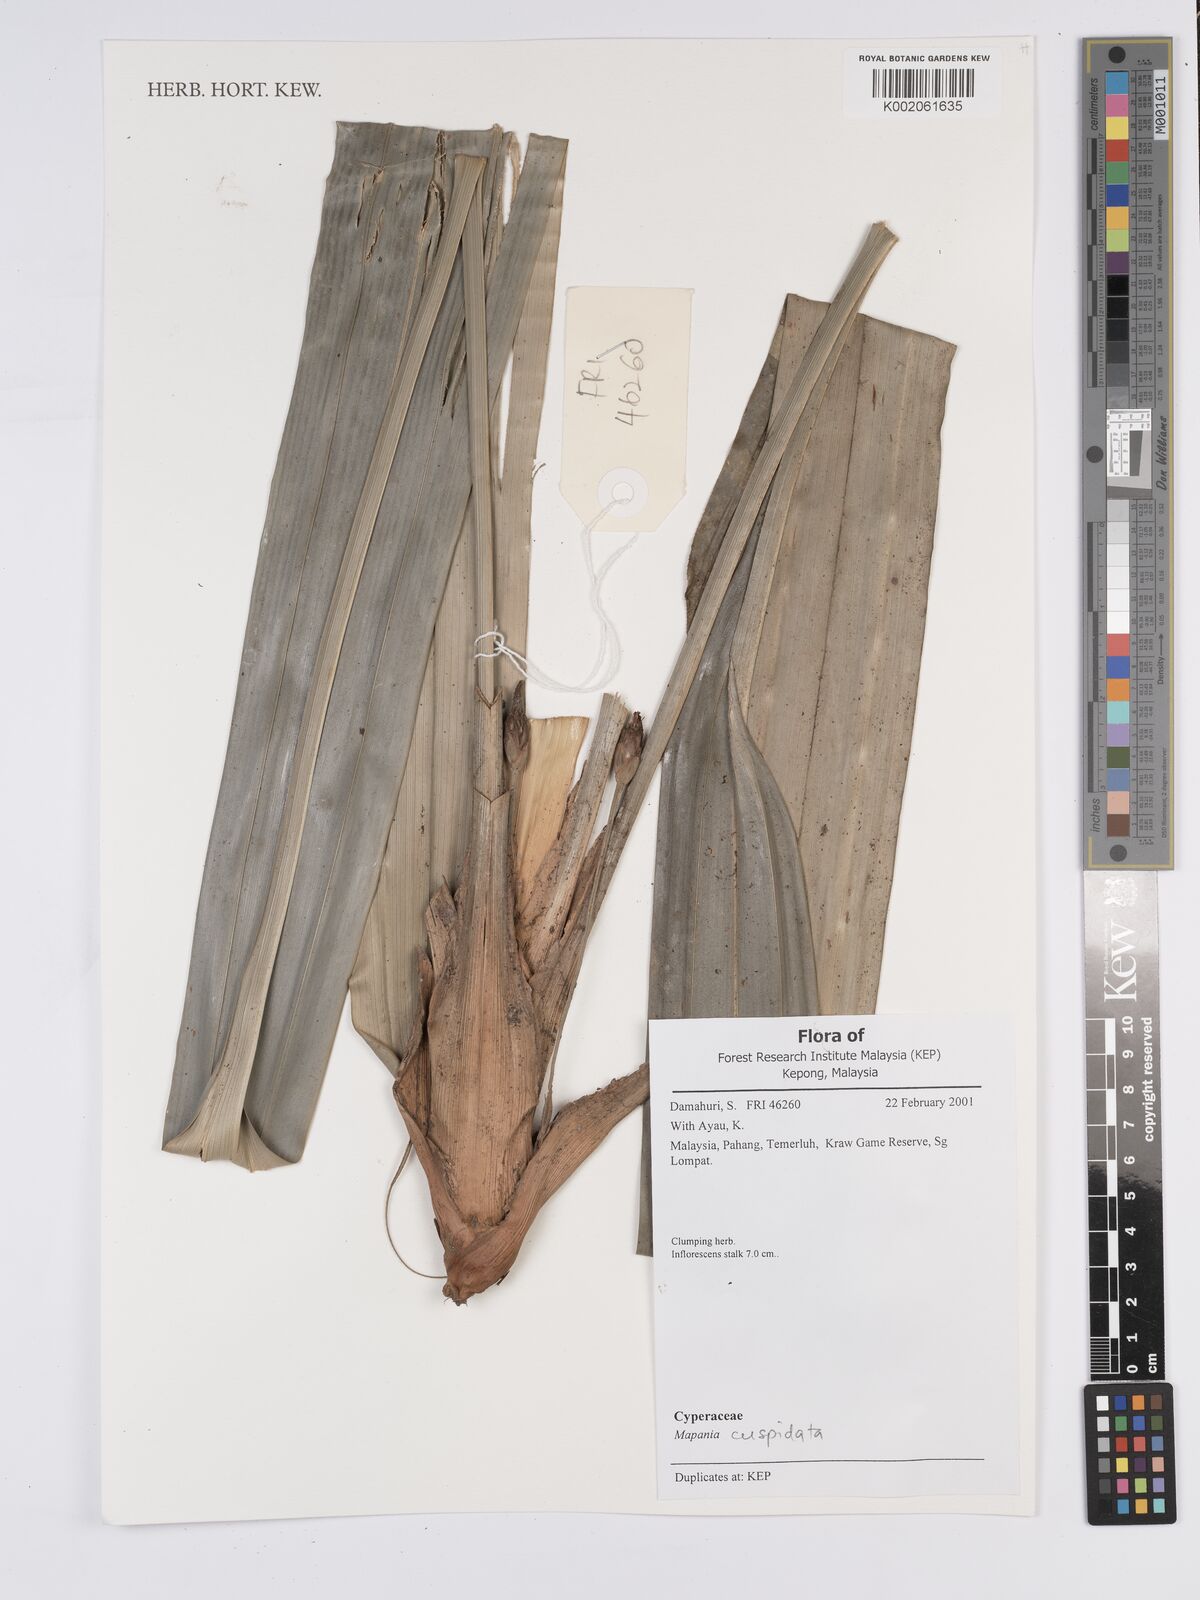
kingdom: Plantae
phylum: Tracheophyta
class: Liliopsida
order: Poales
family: Cyperaceae
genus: Mapania
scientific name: Mapania cuspidata
